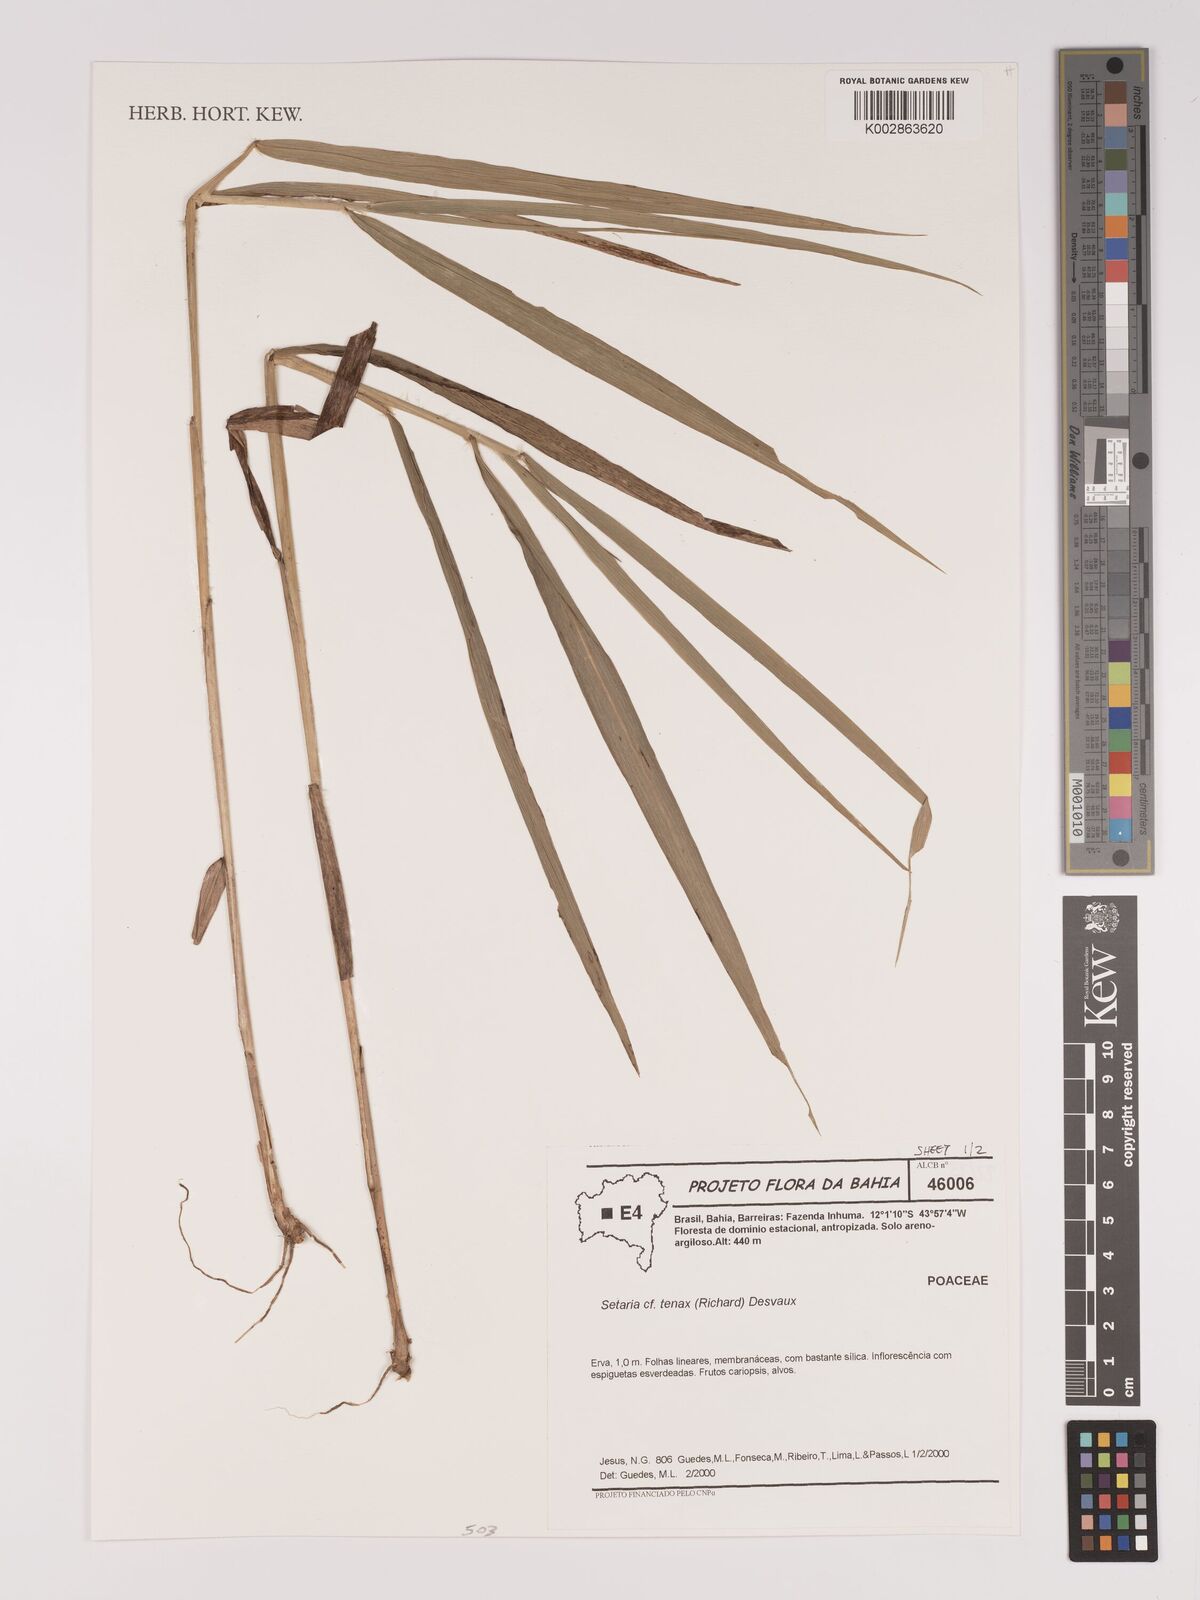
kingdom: Plantae
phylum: Tracheophyta
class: Liliopsida
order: Poales
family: Poaceae
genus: Setaria
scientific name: Setaria tenax
